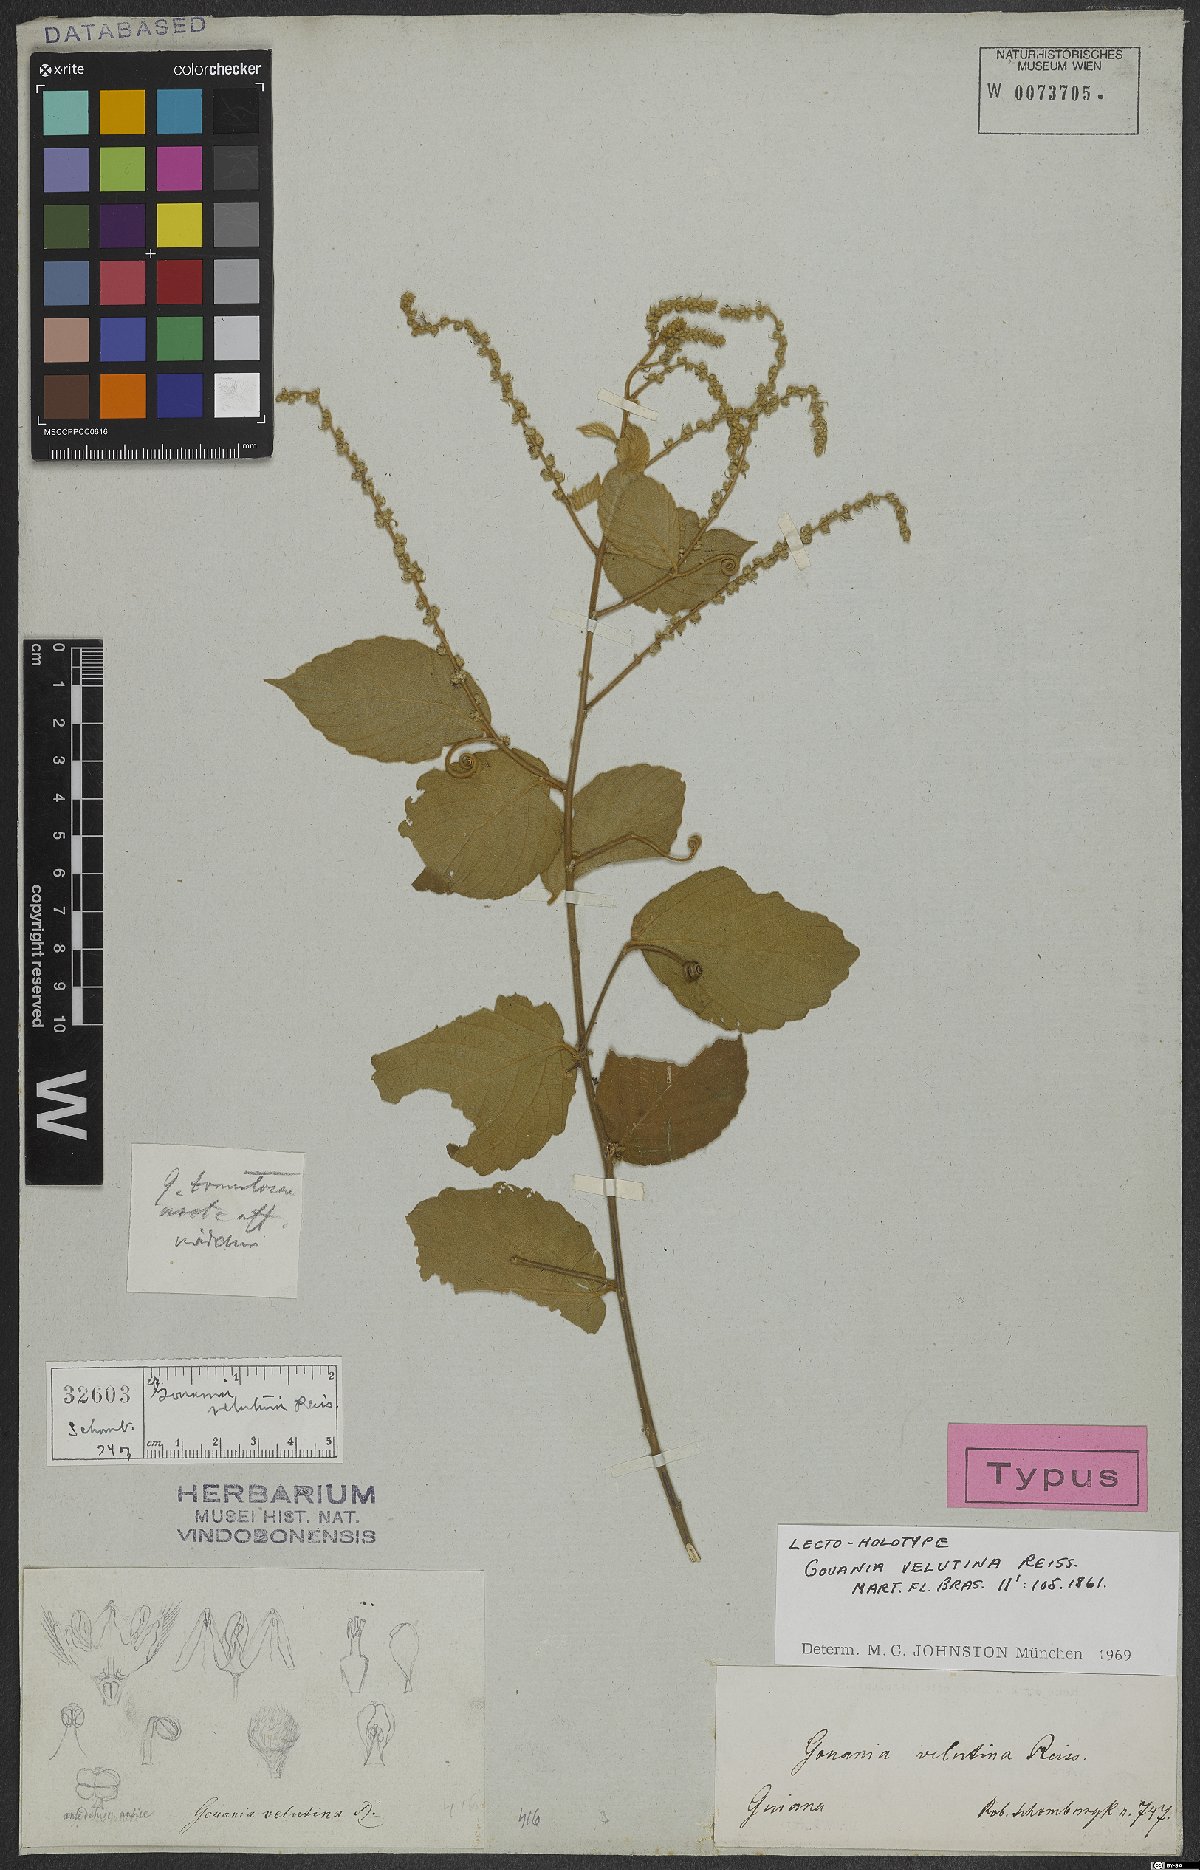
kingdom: Plantae
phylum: Tracheophyta
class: Magnoliopsida
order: Rosales
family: Rhamnaceae
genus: Gouania
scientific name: Gouania velutina
